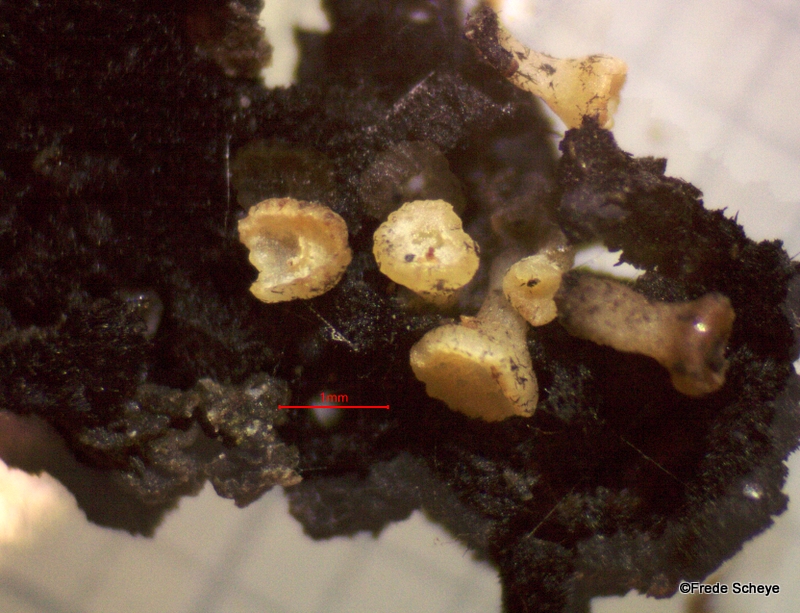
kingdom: Fungi
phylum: Ascomycota
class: Leotiomycetes
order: Helotiales
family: Helotiaceae
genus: Bispora
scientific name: Bispora pallescens
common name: måtte-snitskive
